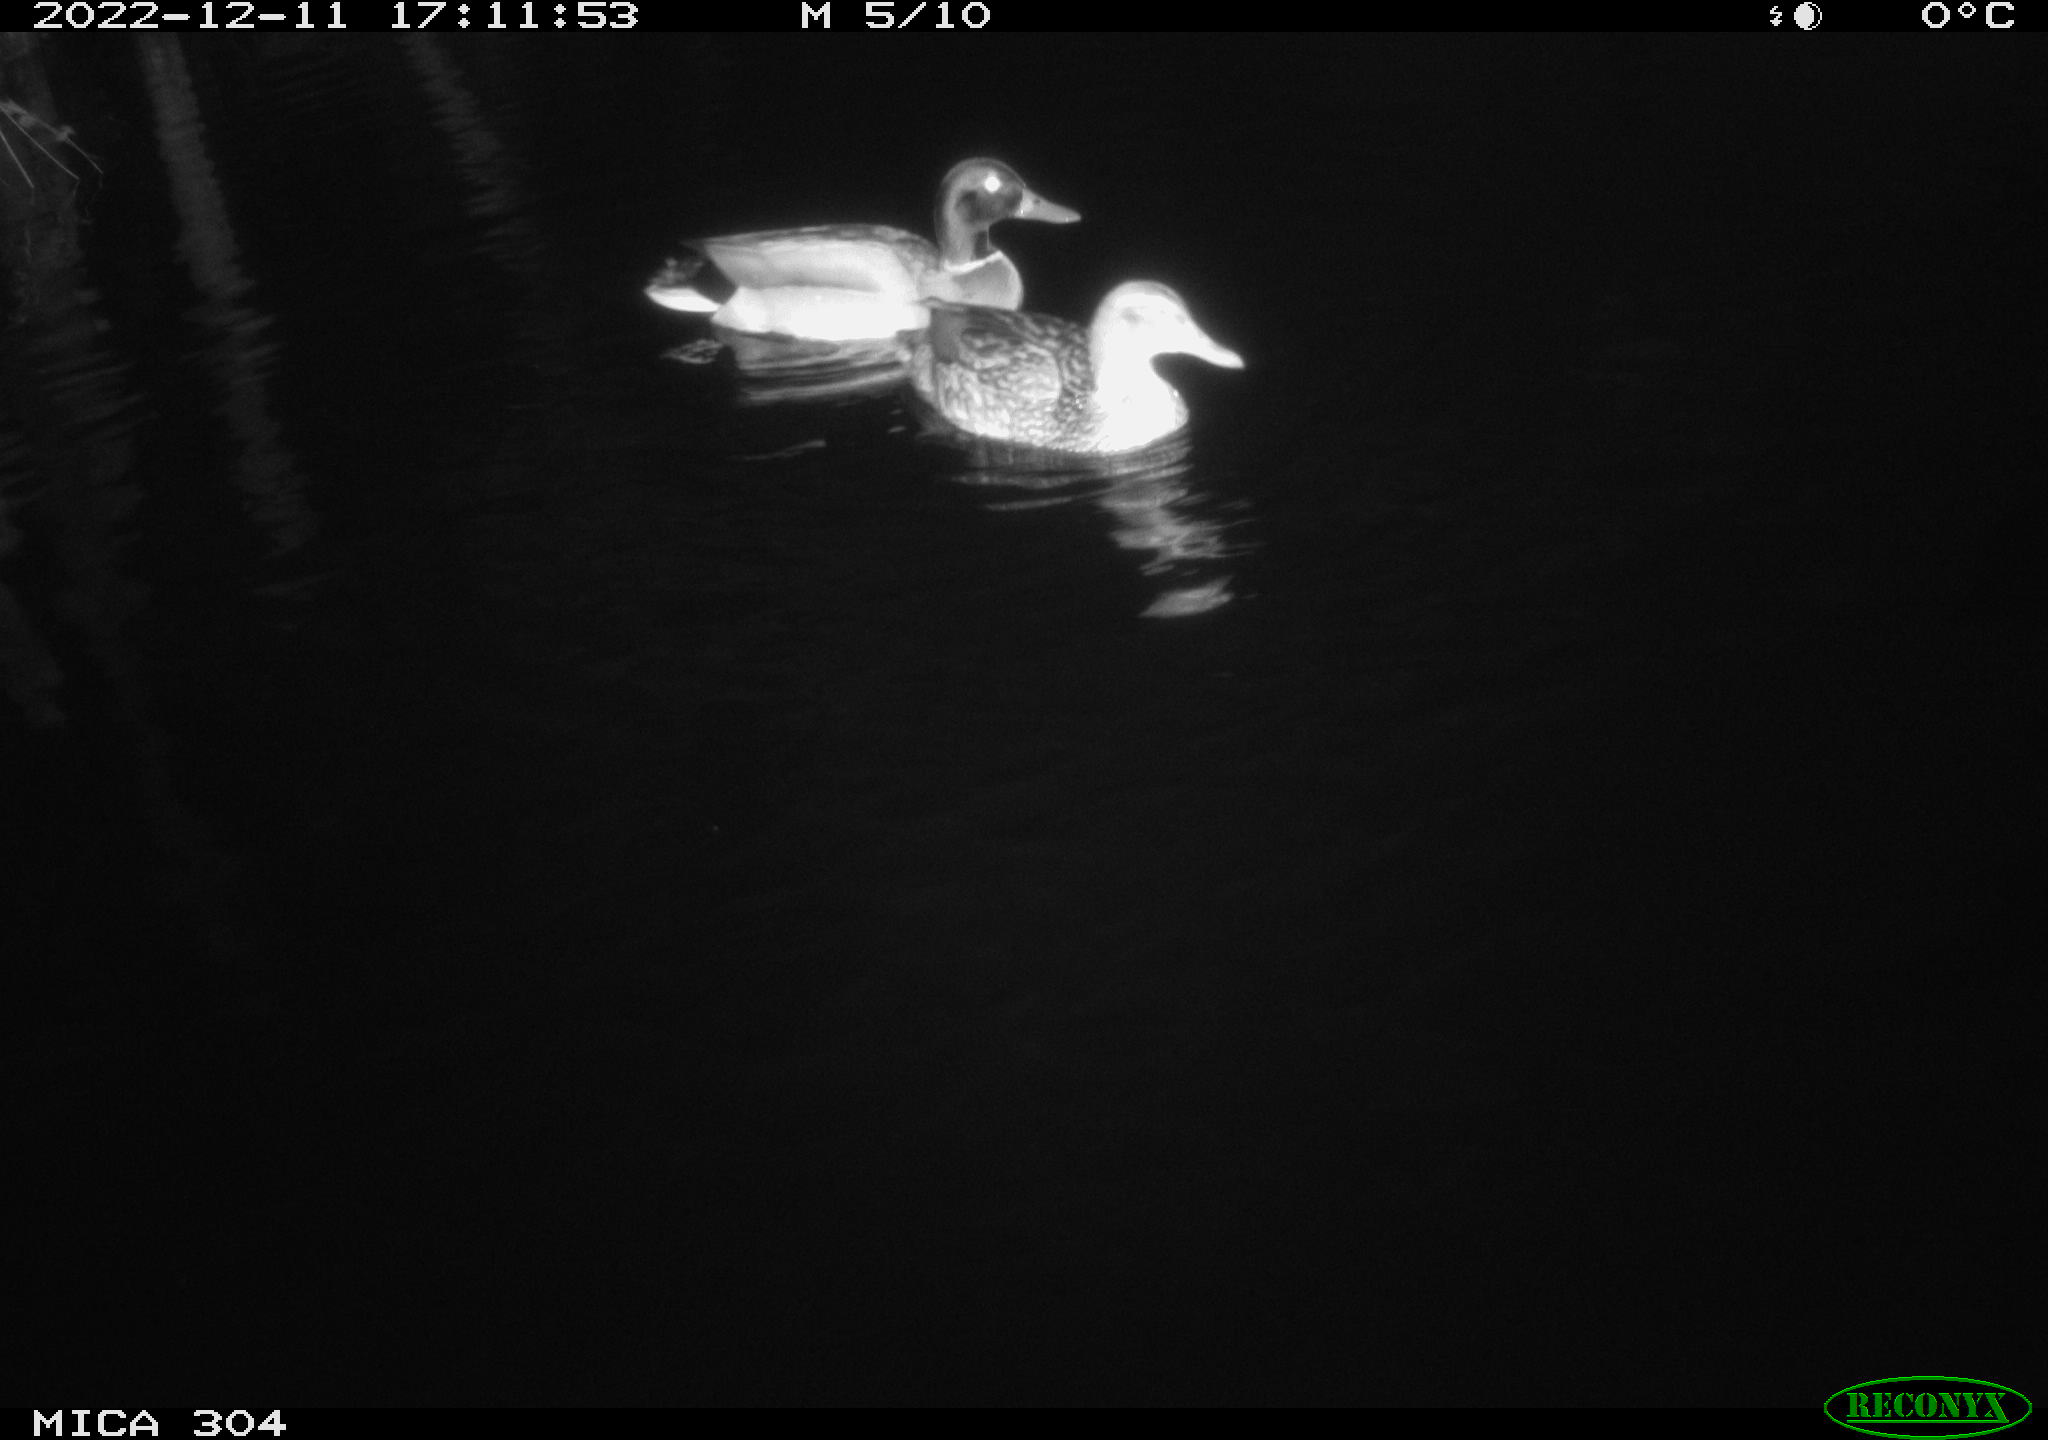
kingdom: Animalia
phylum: Chordata
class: Aves
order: Anseriformes
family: Anatidae
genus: Anas
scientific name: Anas
